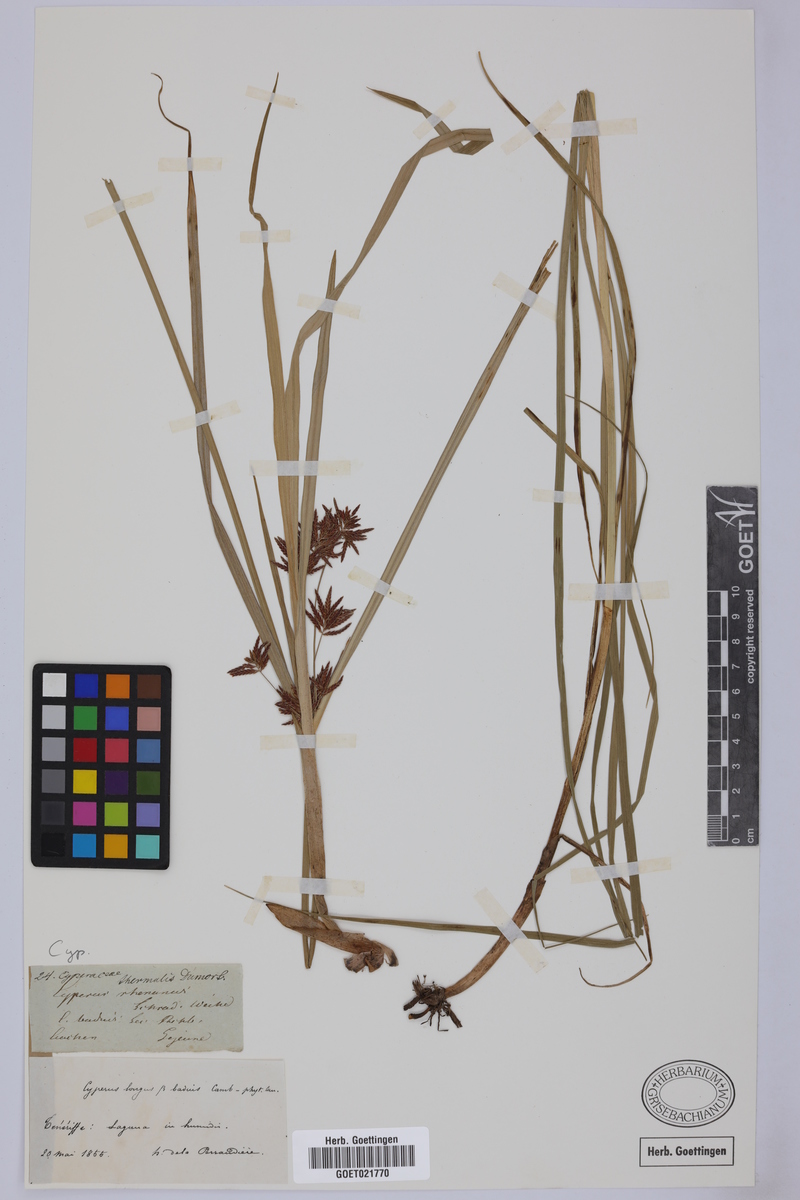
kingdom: Plantae
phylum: Tracheophyta
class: Liliopsida
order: Poales
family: Cyperaceae
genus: Cyperus
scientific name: Cyperus longus
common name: Galingale
